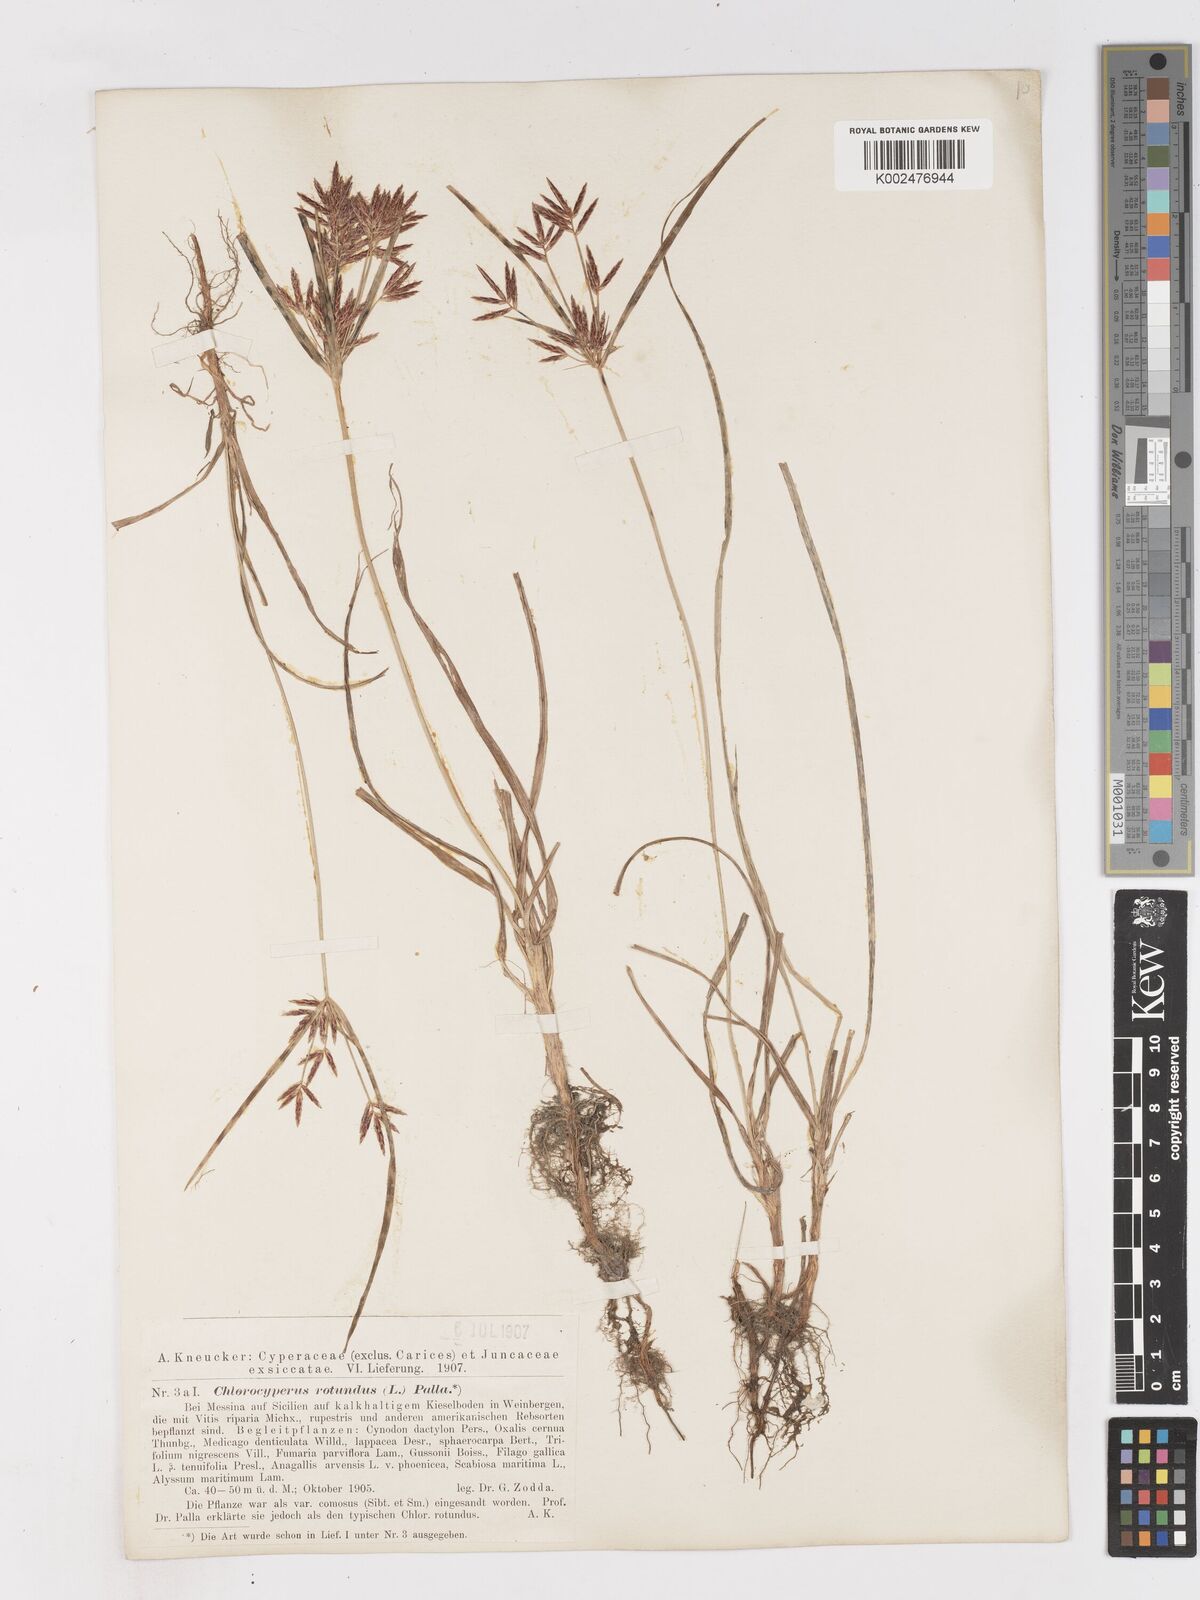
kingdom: Plantae
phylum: Tracheophyta
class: Liliopsida
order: Poales
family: Cyperaceae
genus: Cyperus
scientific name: Cyperus rotundus
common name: Nutgrass
